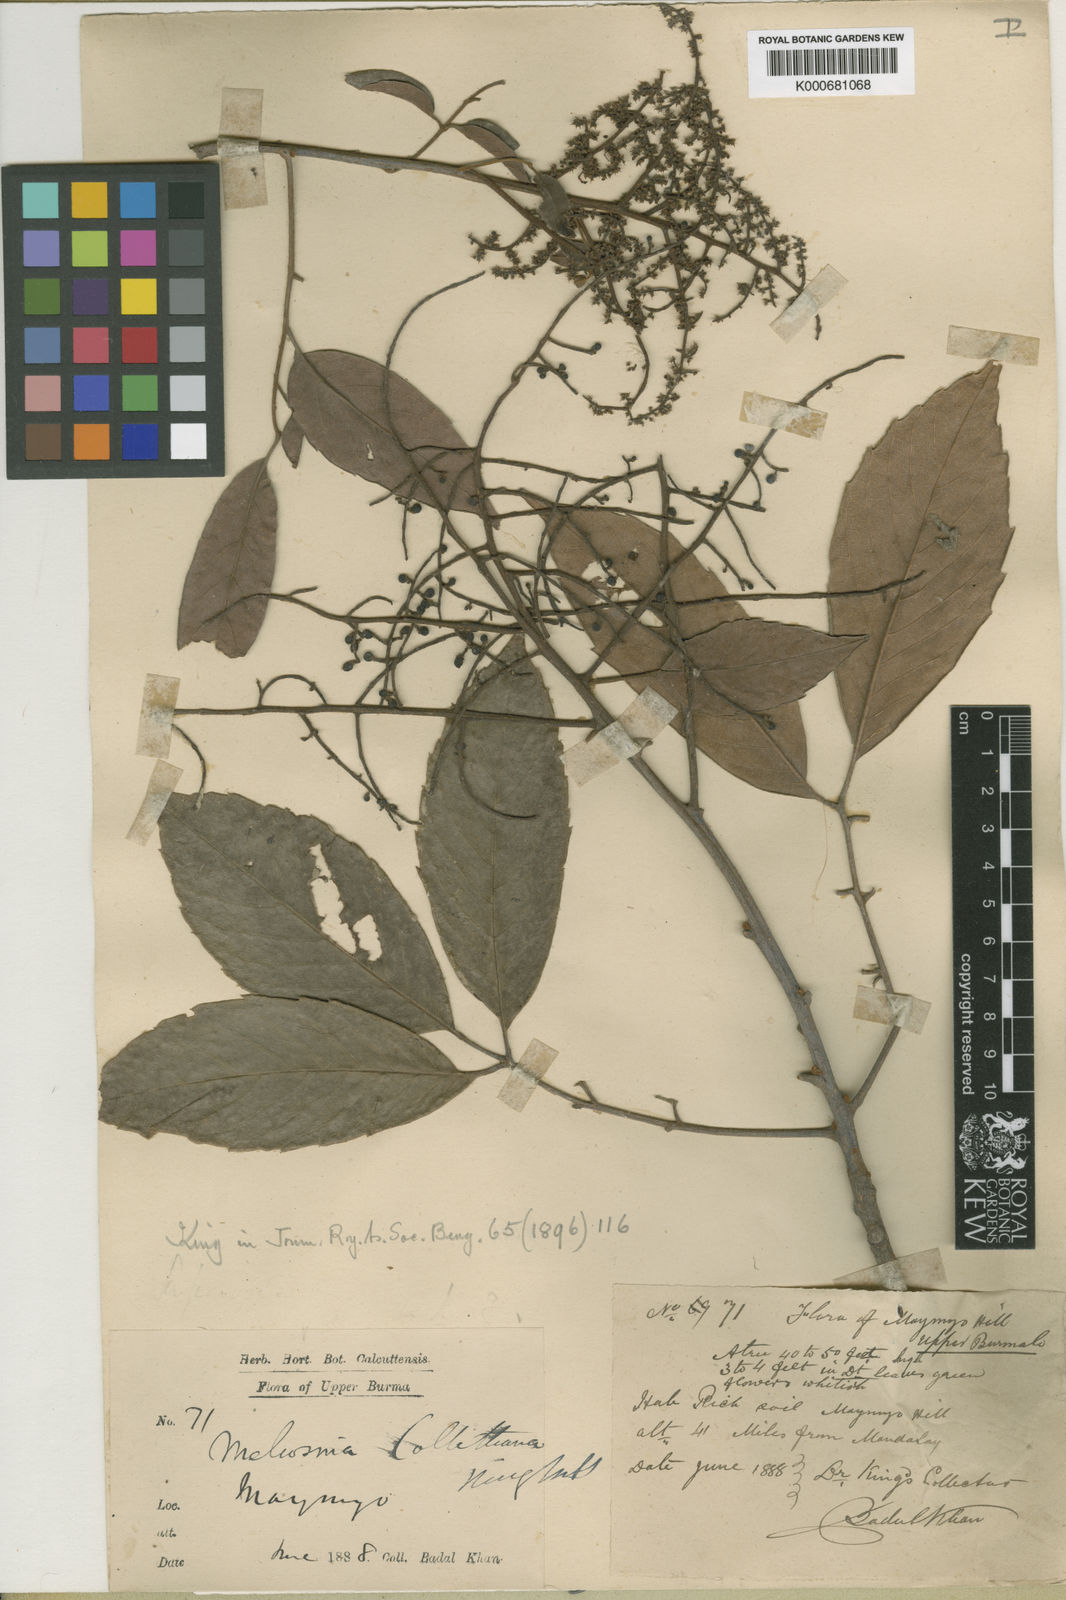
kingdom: Plantae
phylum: Tracheophyta
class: Magnoliopsida
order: Proteales
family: Sabiaceae
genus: Meliosma
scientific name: Meliosma pinnata
